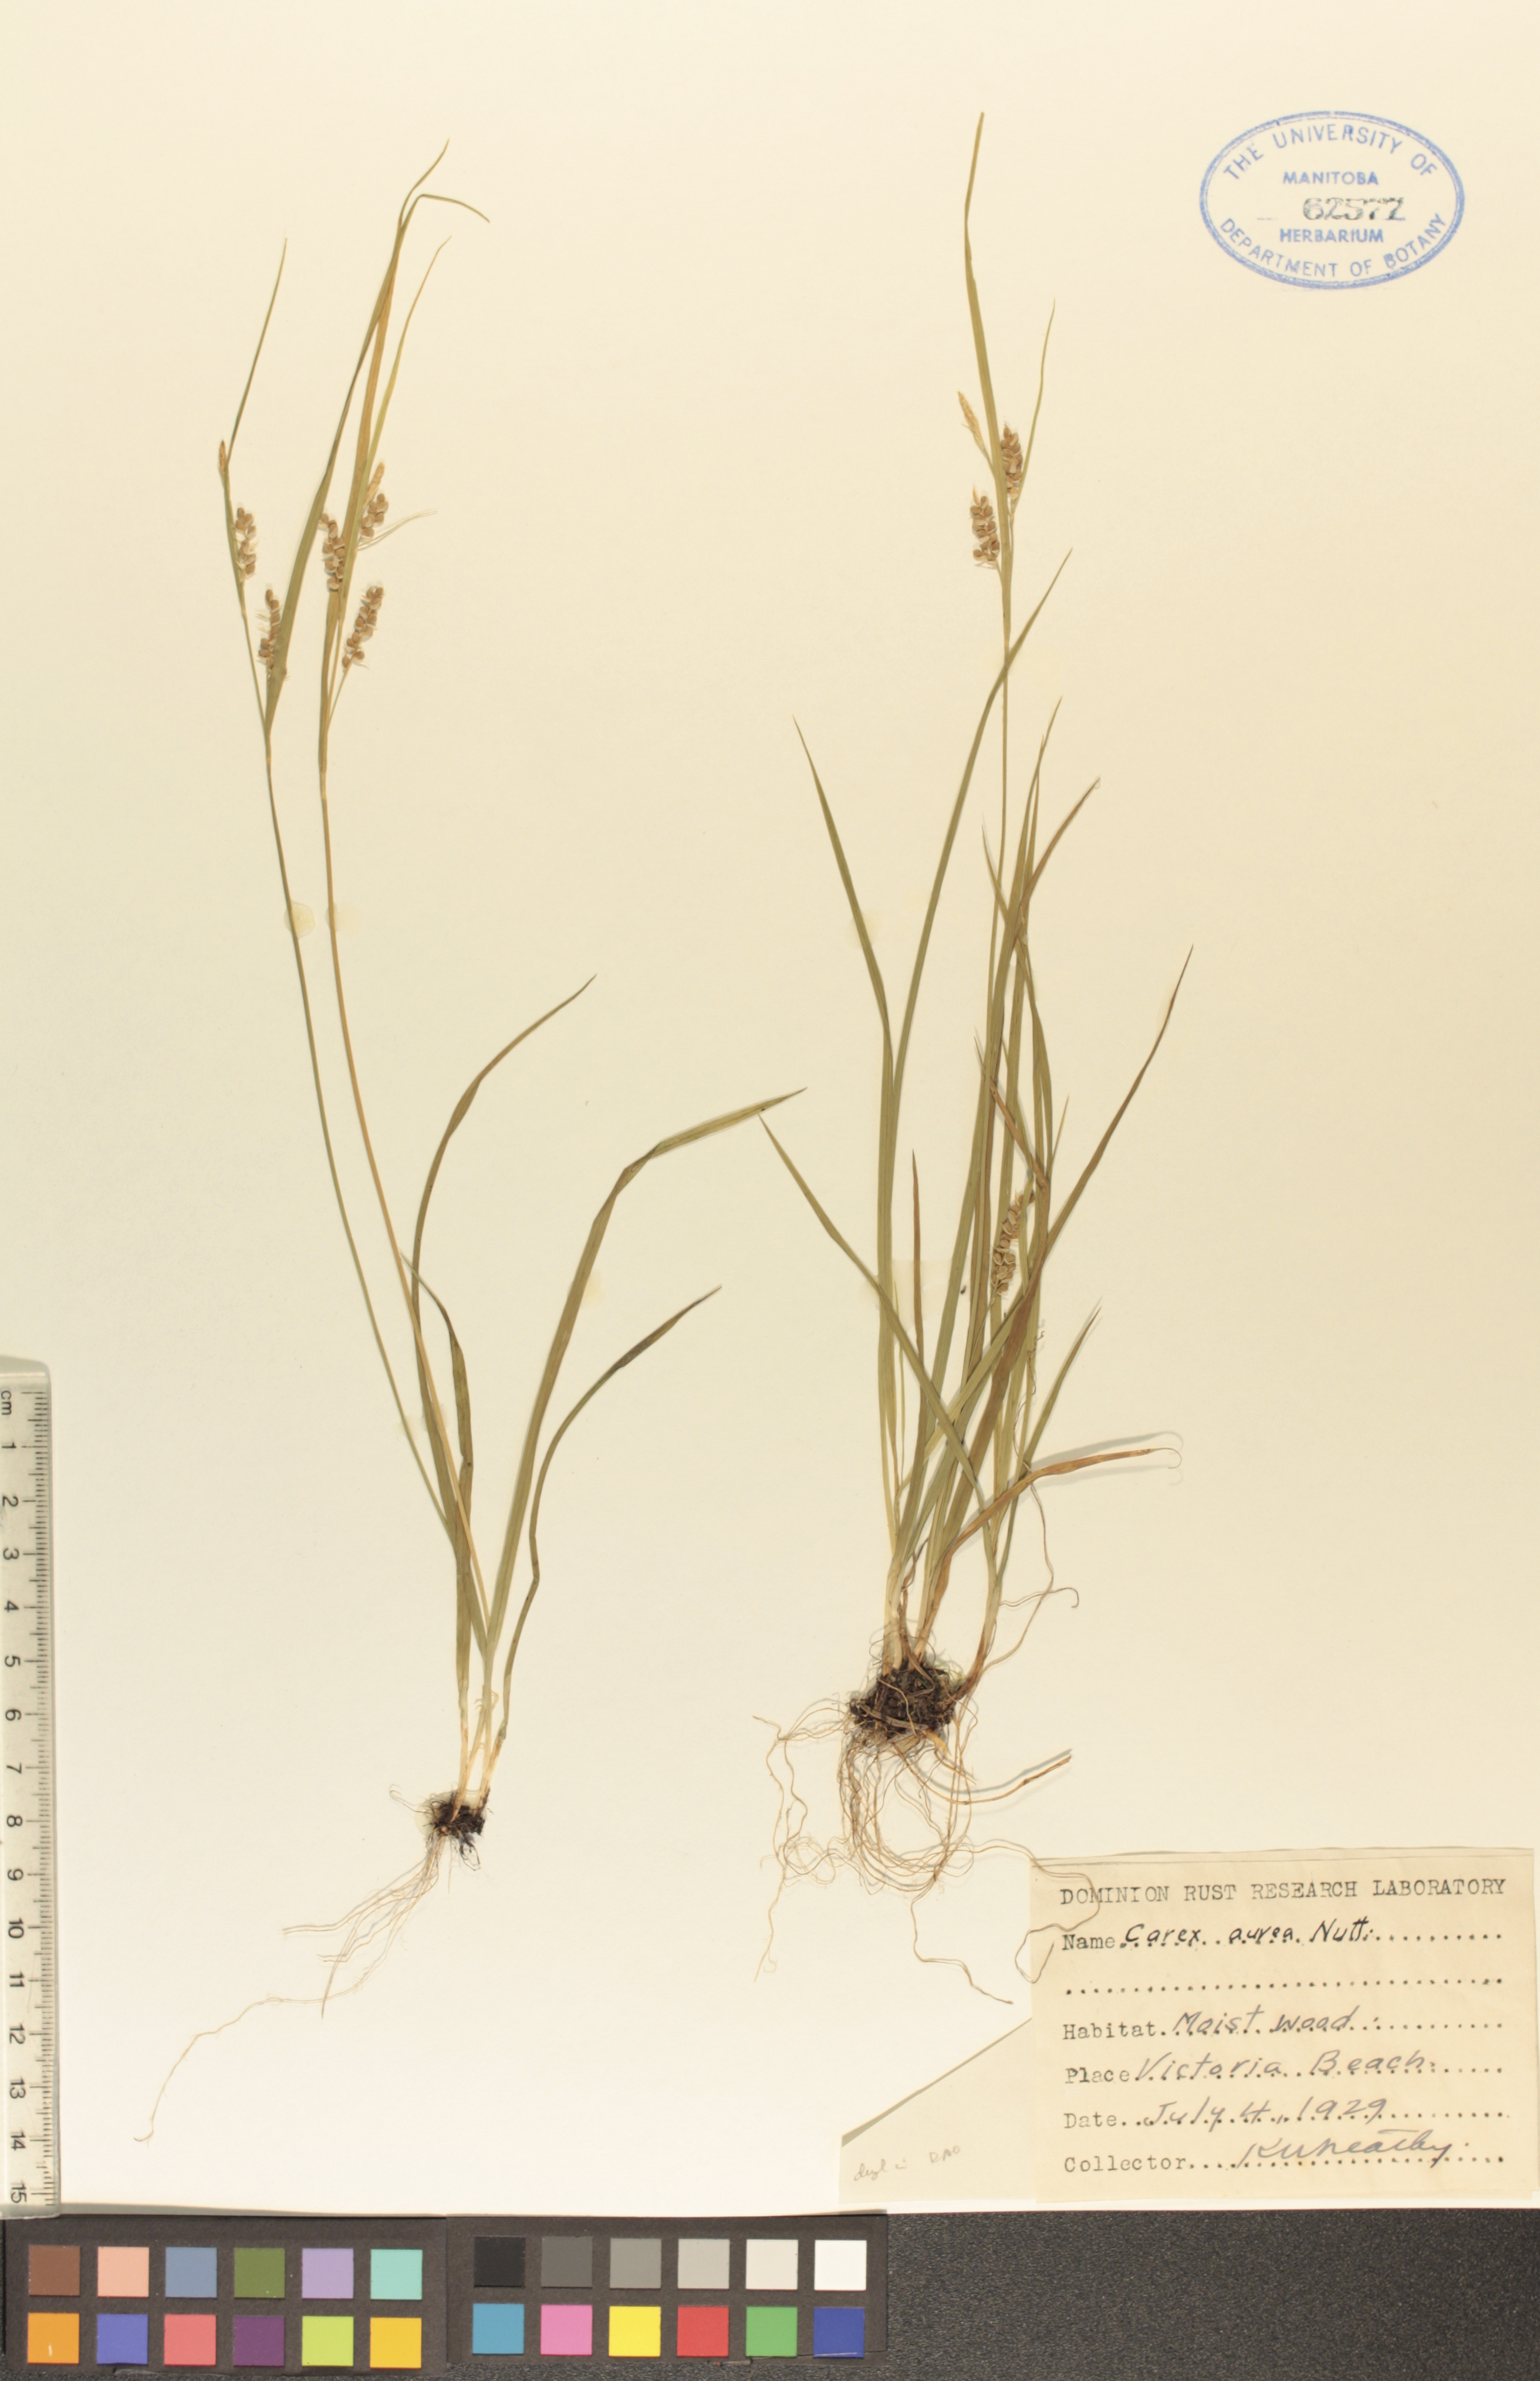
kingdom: Plantae
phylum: Tracheophyta
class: Liliopsida
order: Poales
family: Cyperaceae
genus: Carex
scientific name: Carex aurea
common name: Golden sedge
